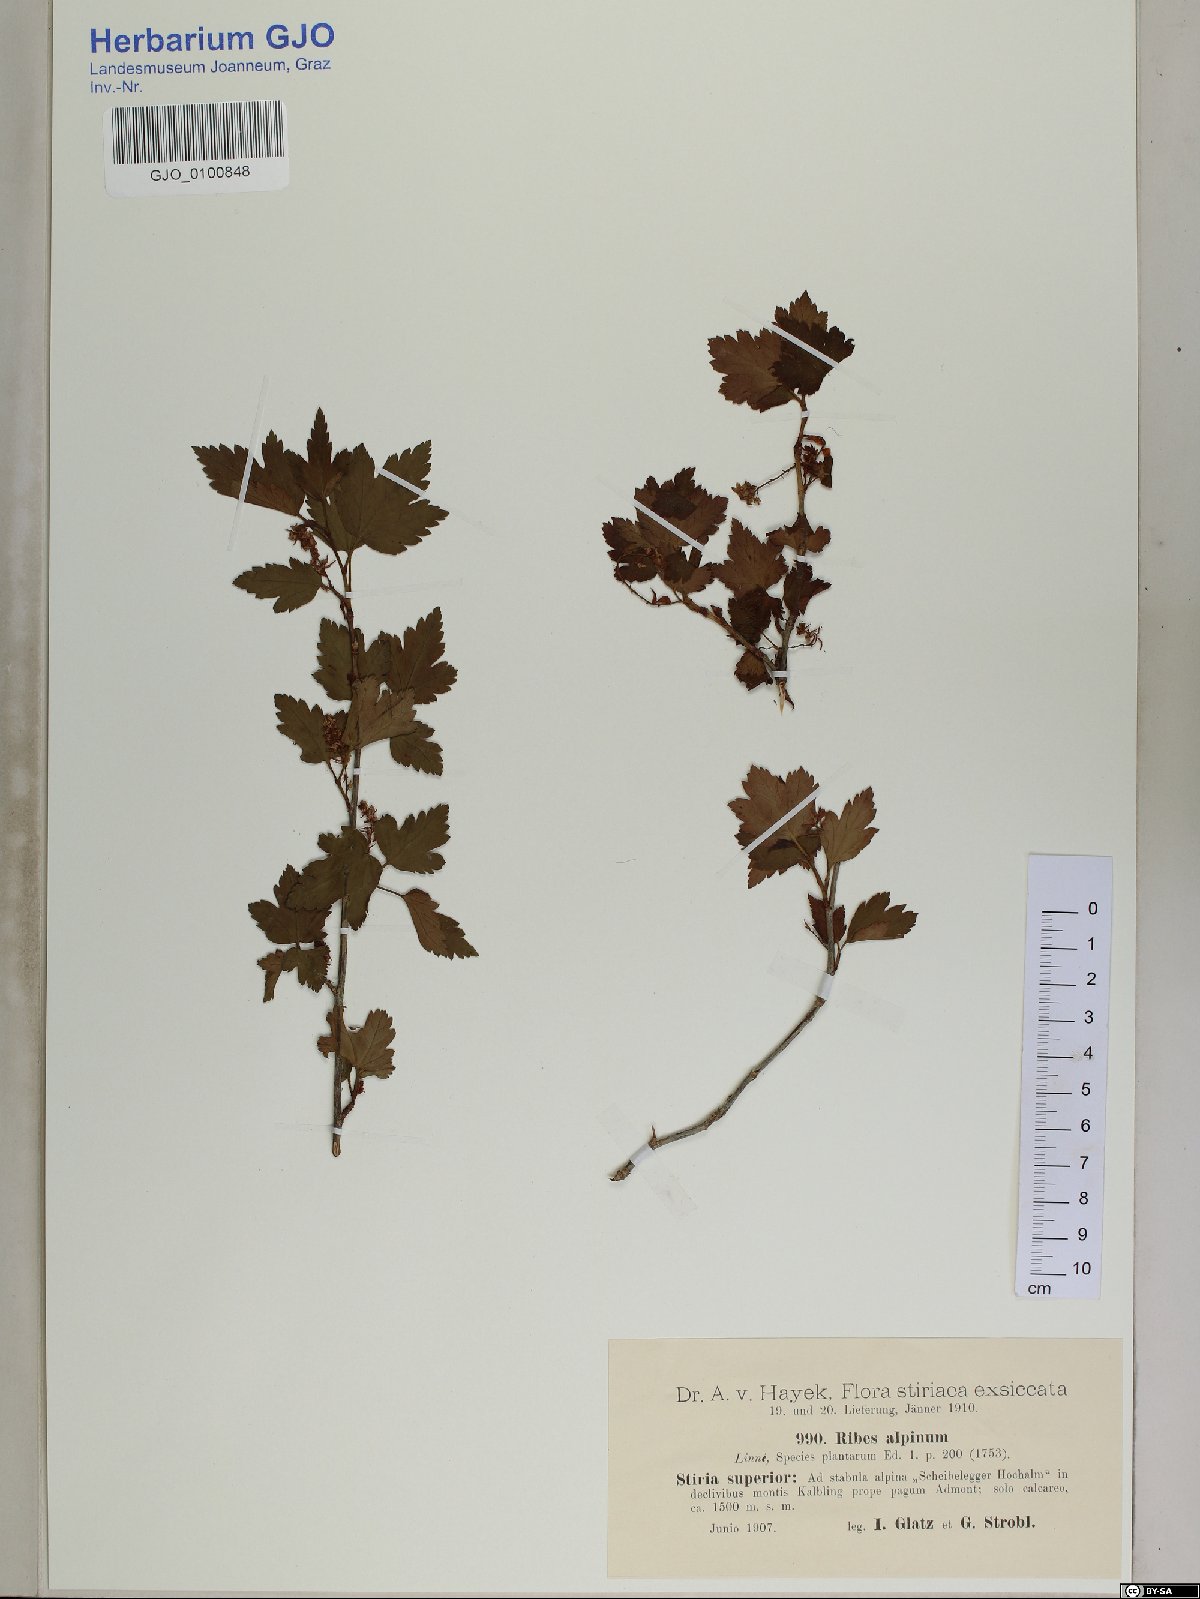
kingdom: Plantae
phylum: Tracheophyta
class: Magnoliopsida
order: Saxifragales
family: Grossulariaceae
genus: Ribes
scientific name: Ribes alpinum
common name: Alpine currant
